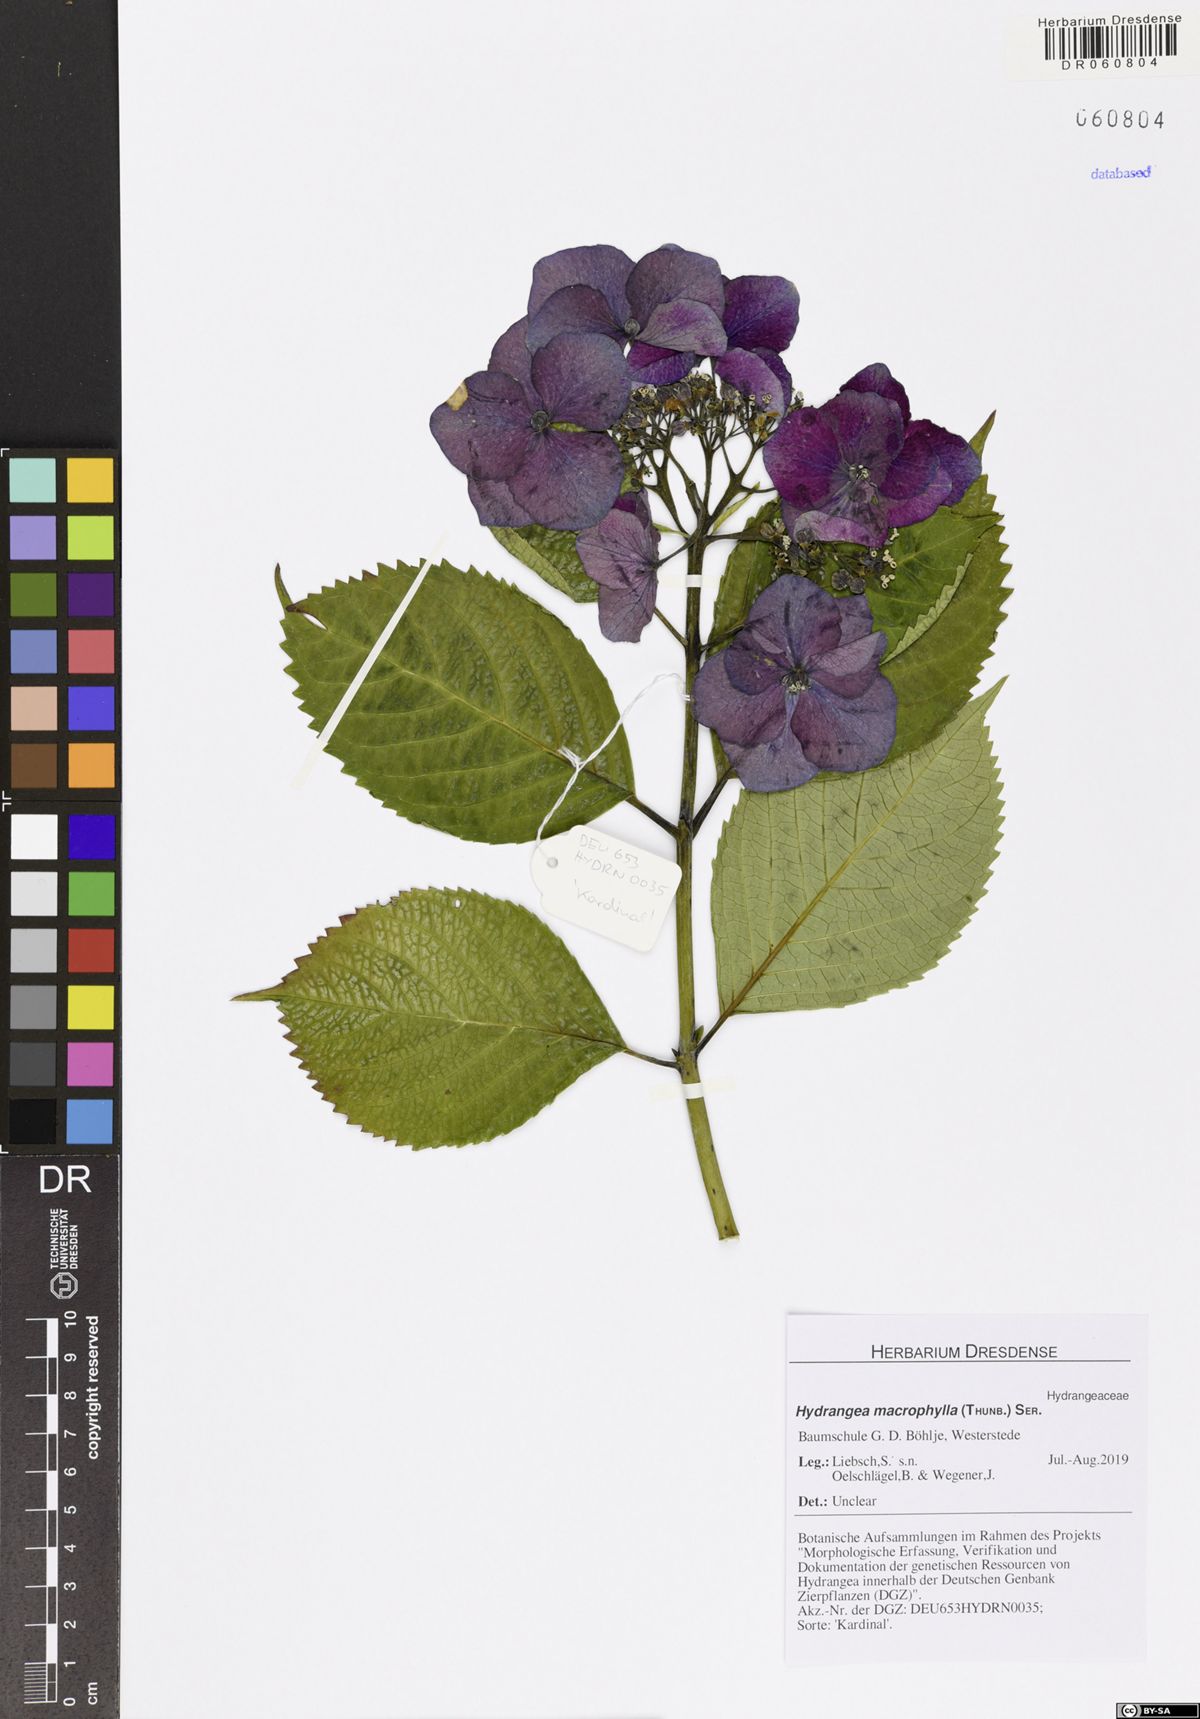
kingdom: Plantae
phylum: Tracheophyta
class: Magnoliopsida
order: Cornales
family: Hydrangeaceae
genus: Hydrangea
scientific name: Hydrangea macrophylla
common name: Hydrangea
